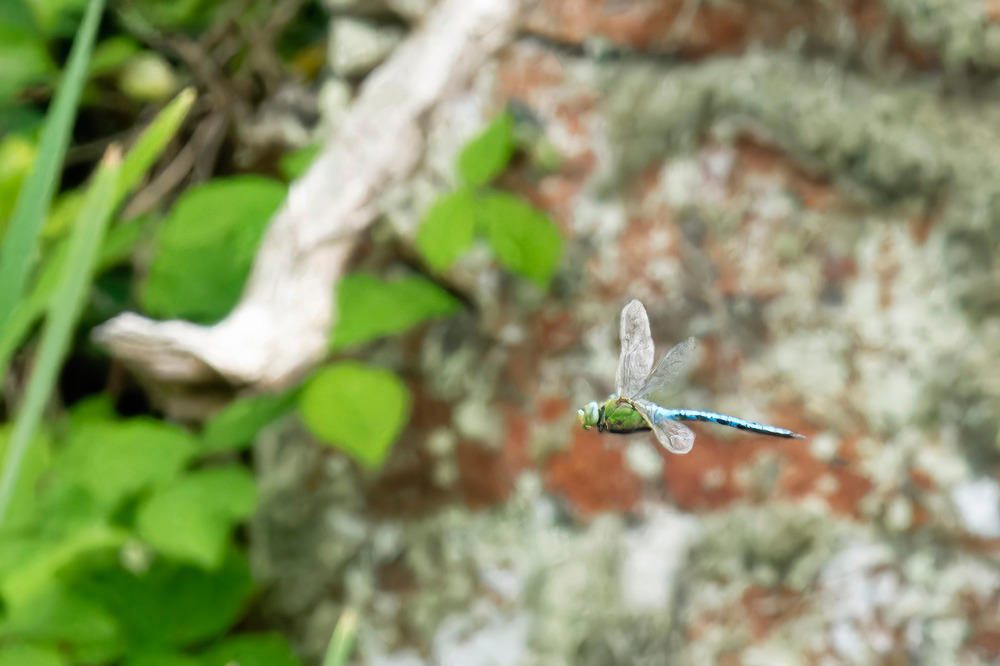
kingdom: Animalia
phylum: Arthropoda
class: Insecta
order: Odonata
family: Aeshnidae
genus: Anax
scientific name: Anax imperator
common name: Stor kejserguldsmed
